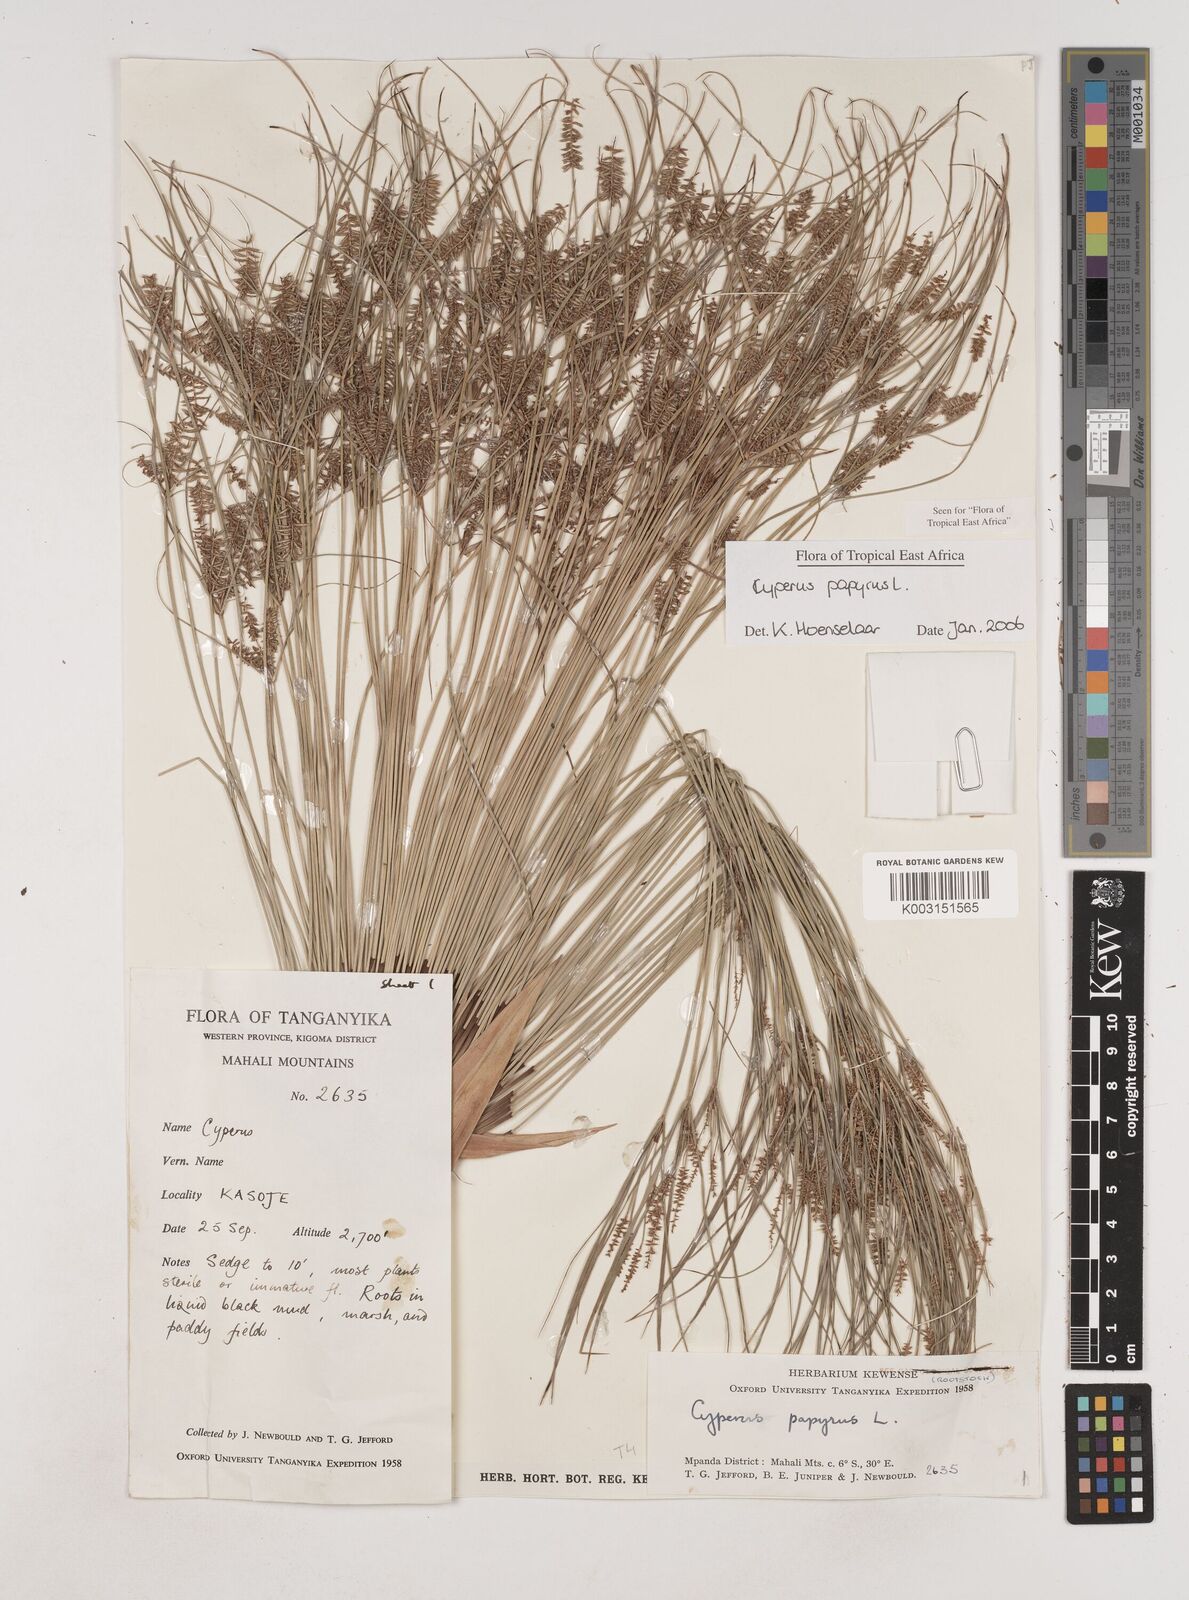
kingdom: Plantae
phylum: Tracheophyta
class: Liliopsida
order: Poales
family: Cyperaceae
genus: Cyperus
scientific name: Cyperus papyrus
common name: Papyrus
